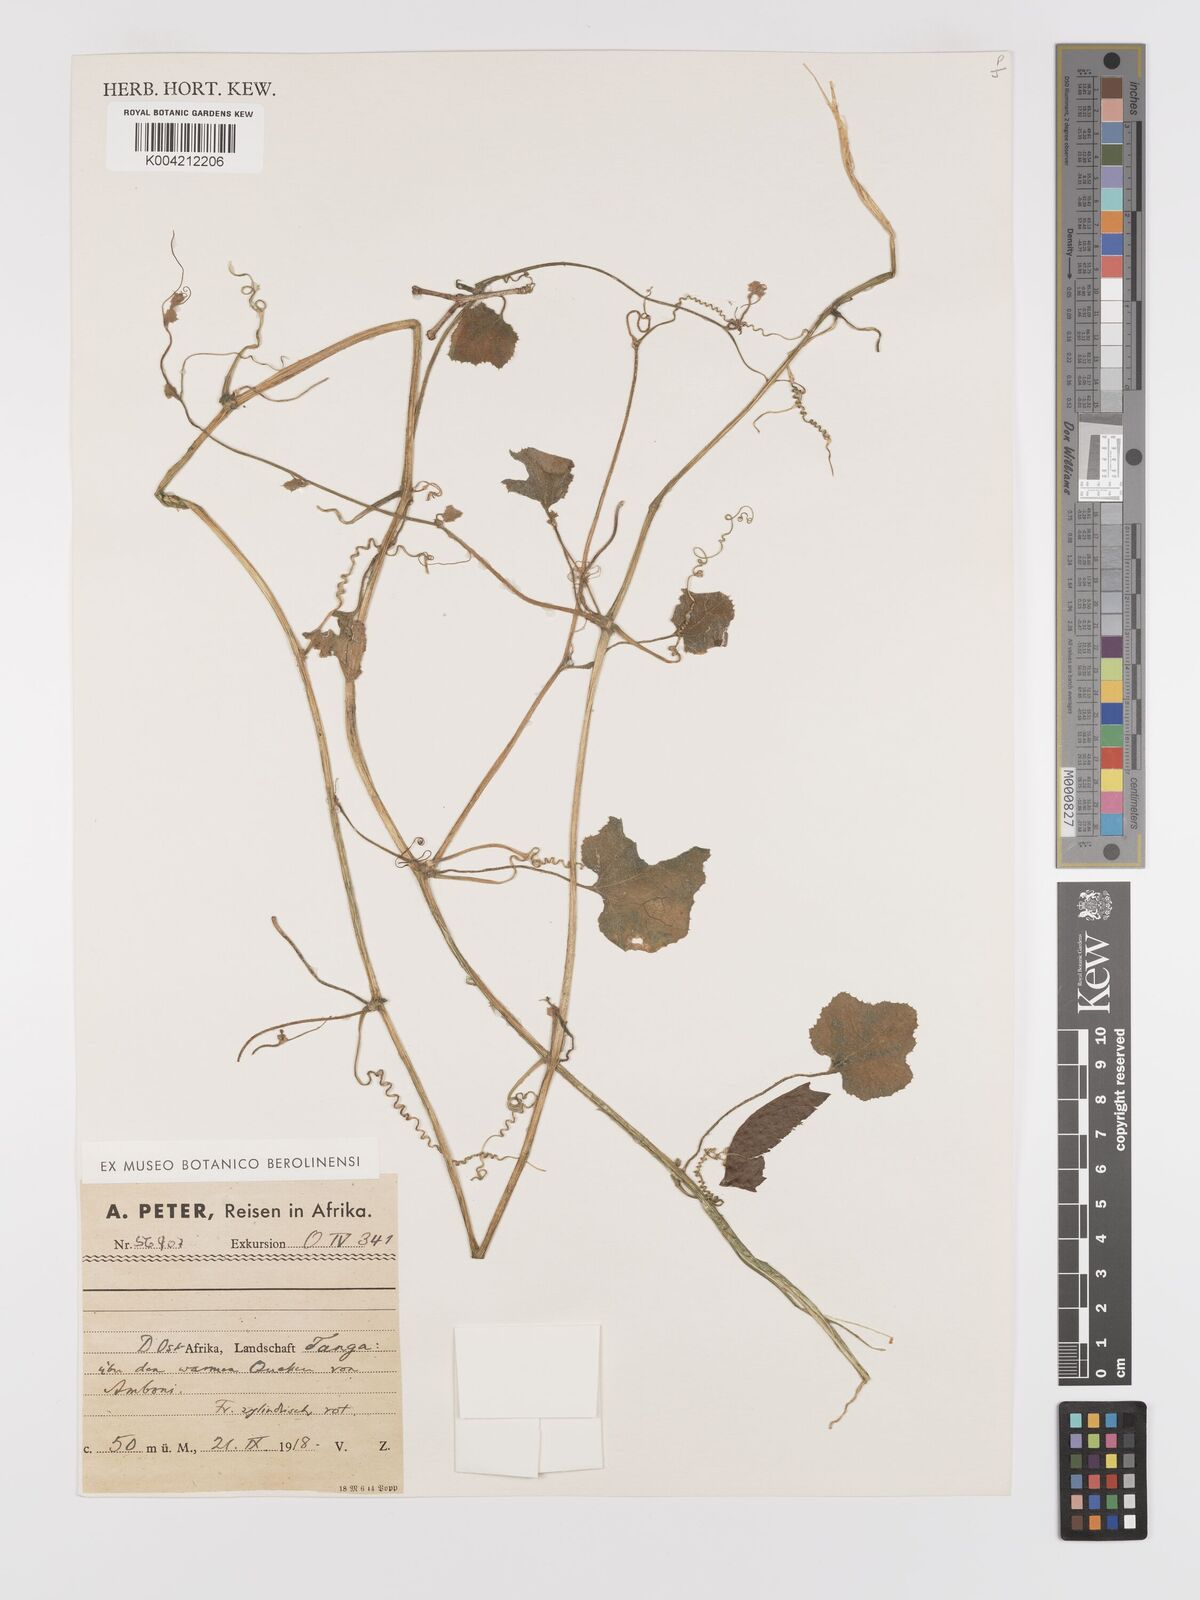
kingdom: Plantae
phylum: Tracheophyta
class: Magnoliopsida
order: Cucurbitales
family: Cucurbitaceae
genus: Kedrostis
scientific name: Kedrostis abdallae
